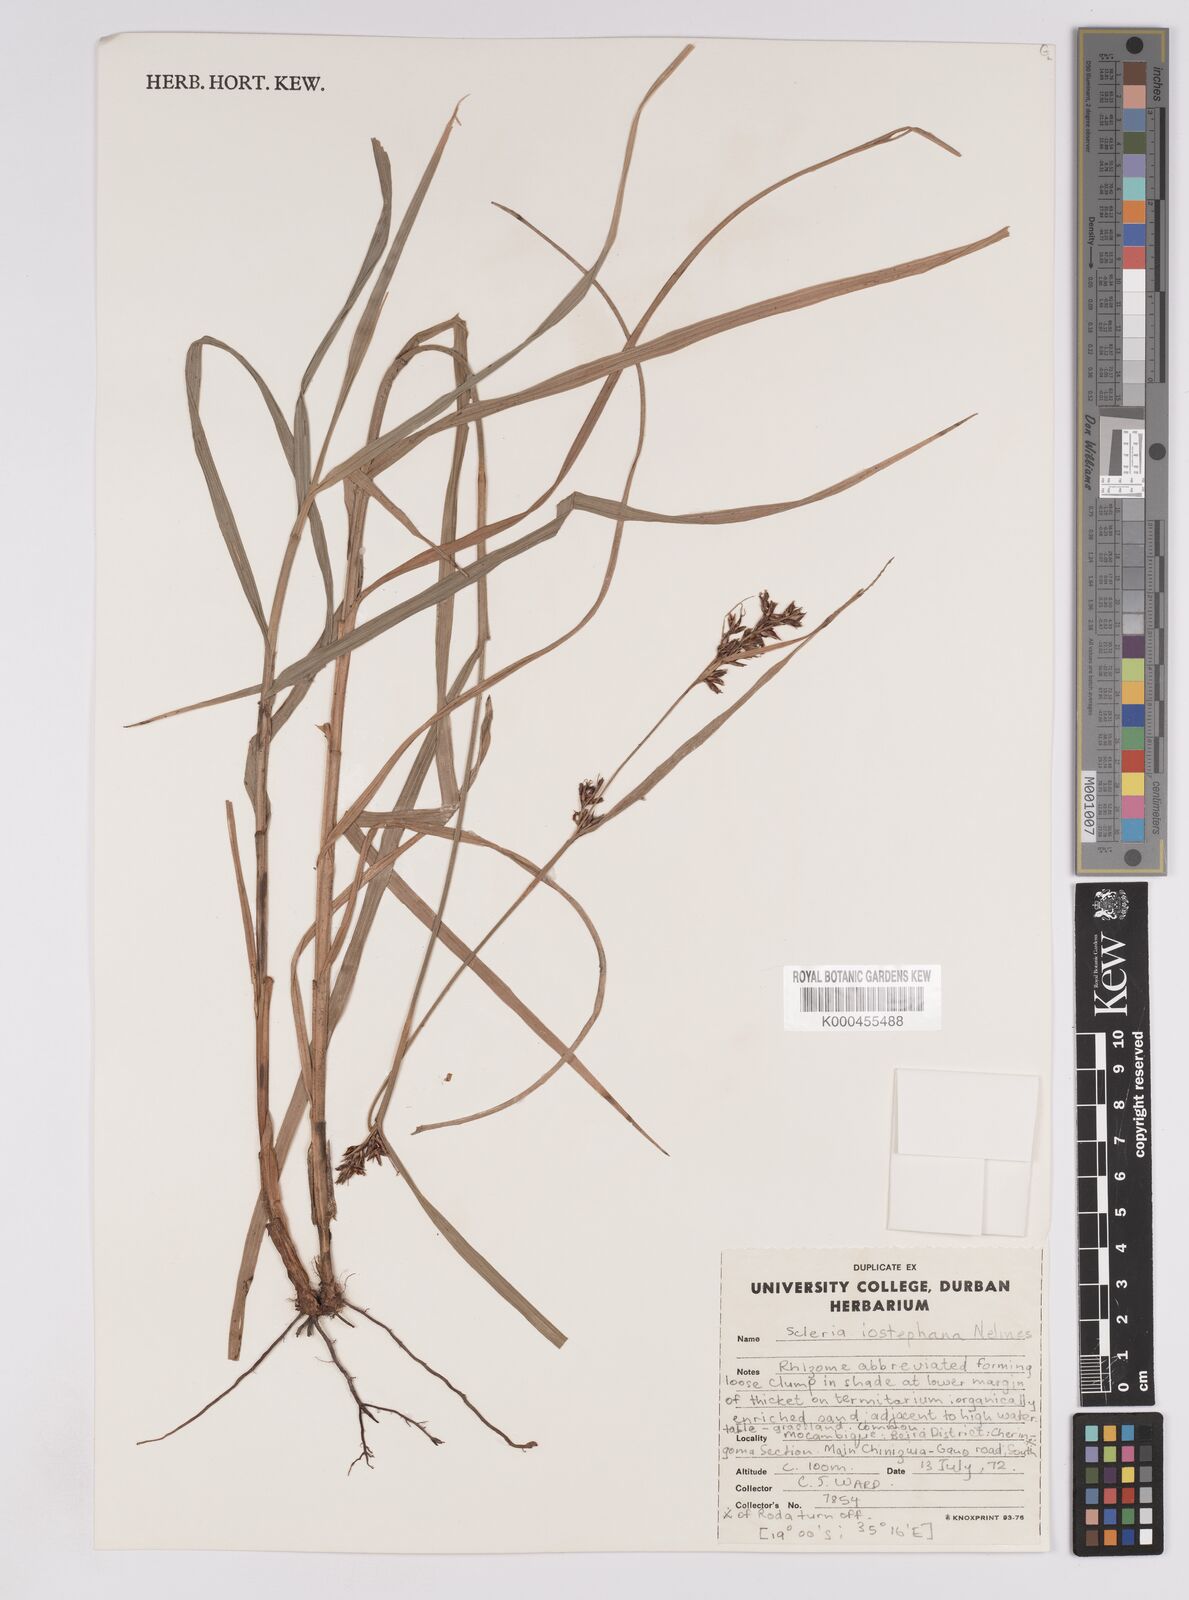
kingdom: Plantae
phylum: Tracheophyta
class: Liliopsida
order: Poales
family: Cyperaceae
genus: Scleria
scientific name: Scleria iostephana
